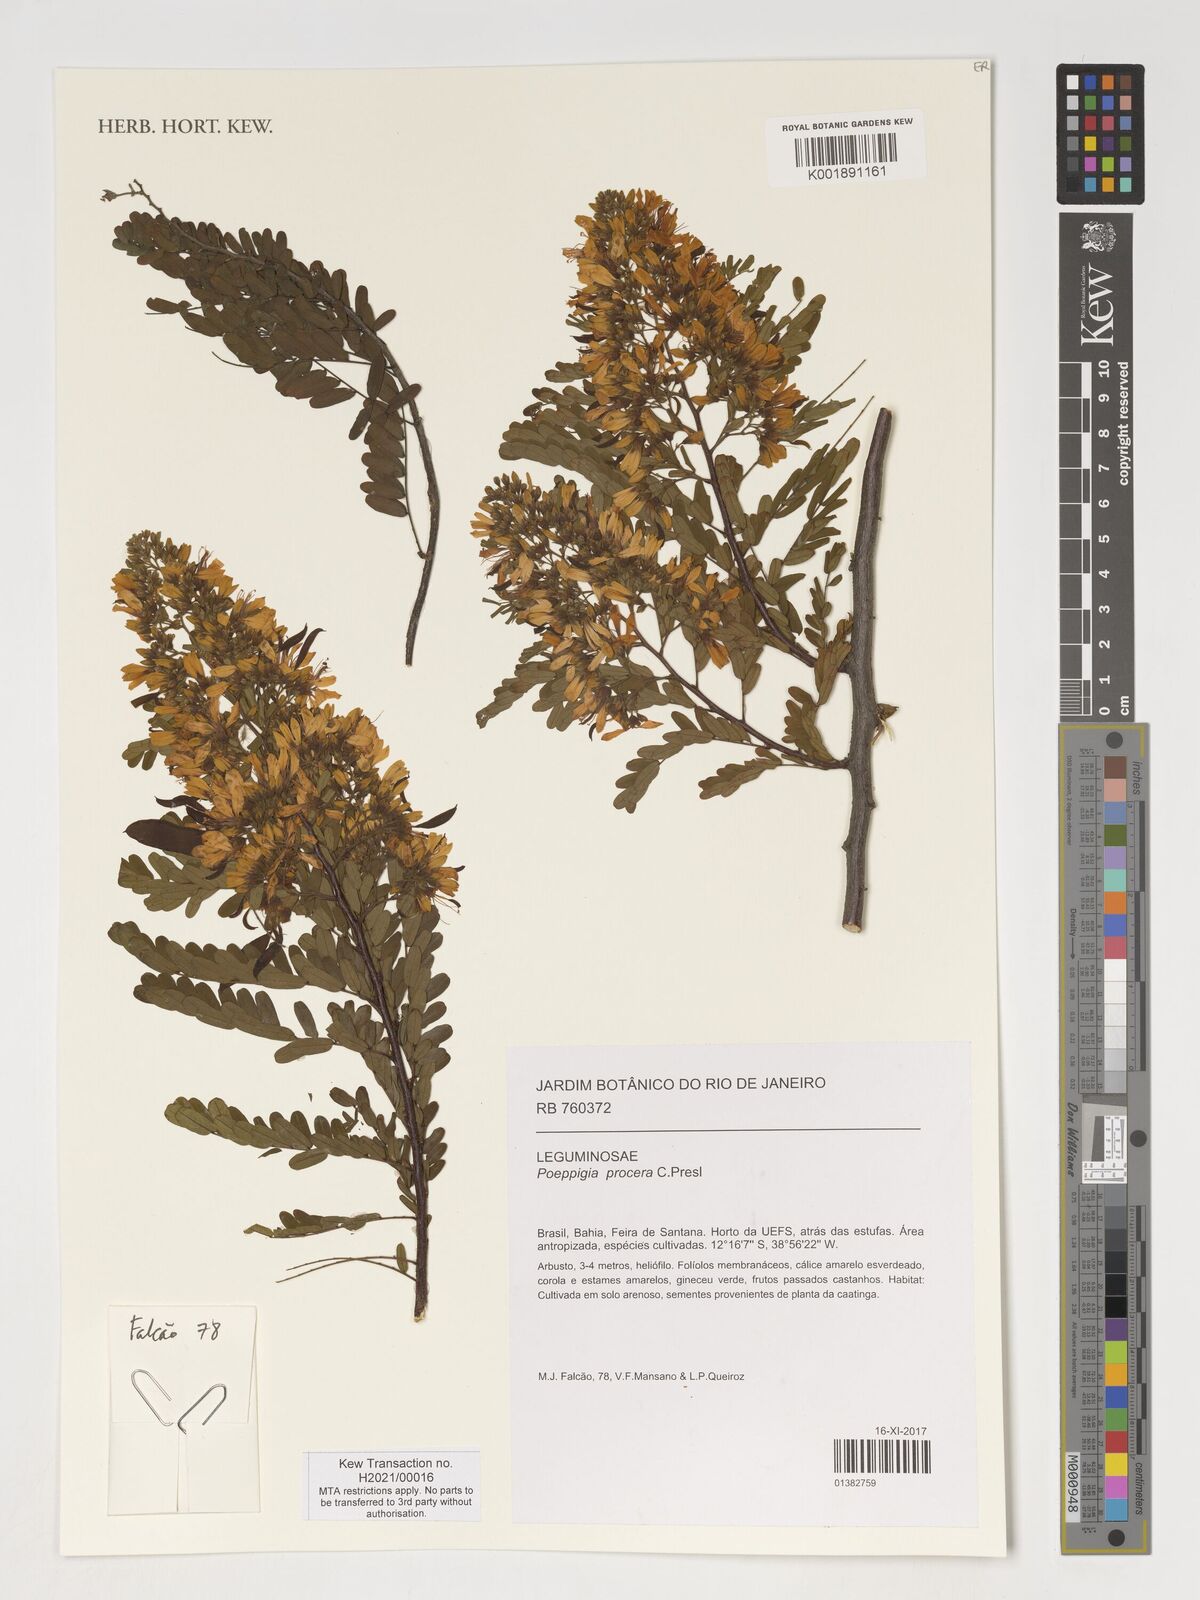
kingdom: Plantae
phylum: Tracheophyta
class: Magnoliopsida
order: Fabales
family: Fabaceae
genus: Poeppigia
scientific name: Poeppigia procera
